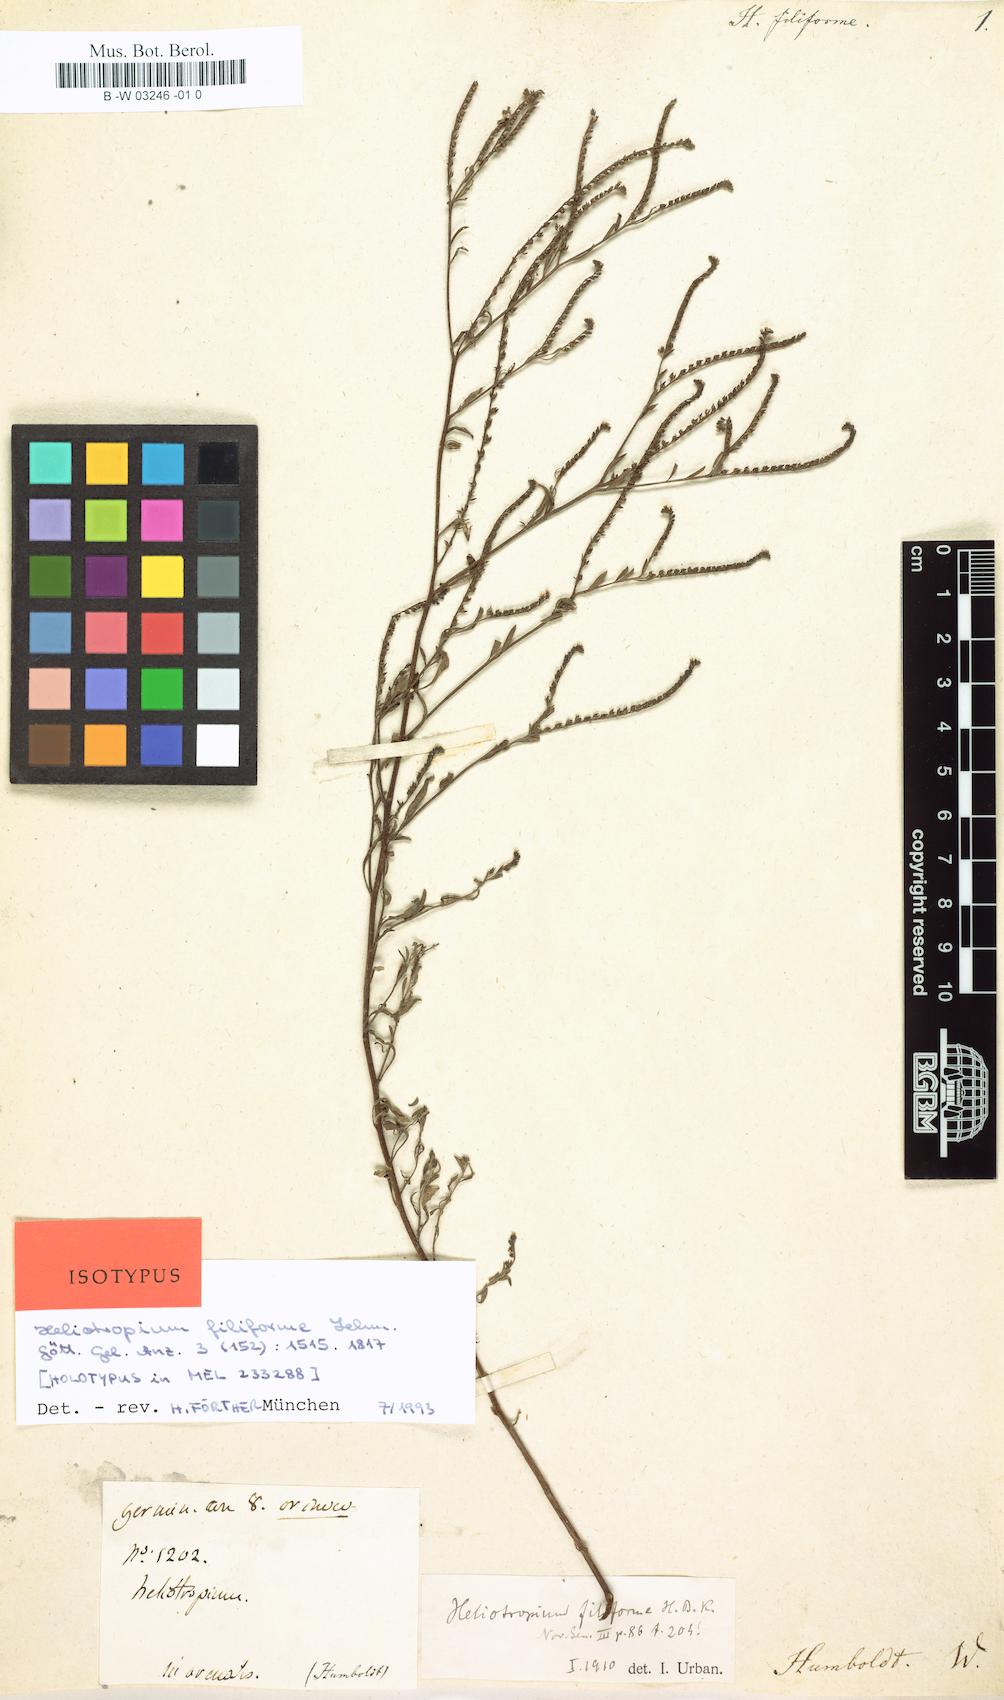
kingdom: Plantae
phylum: Tracheophyta
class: Magnoliopsida
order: Boraginales
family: Heliotropiaceae
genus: Euploca
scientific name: Euploca filiformis
